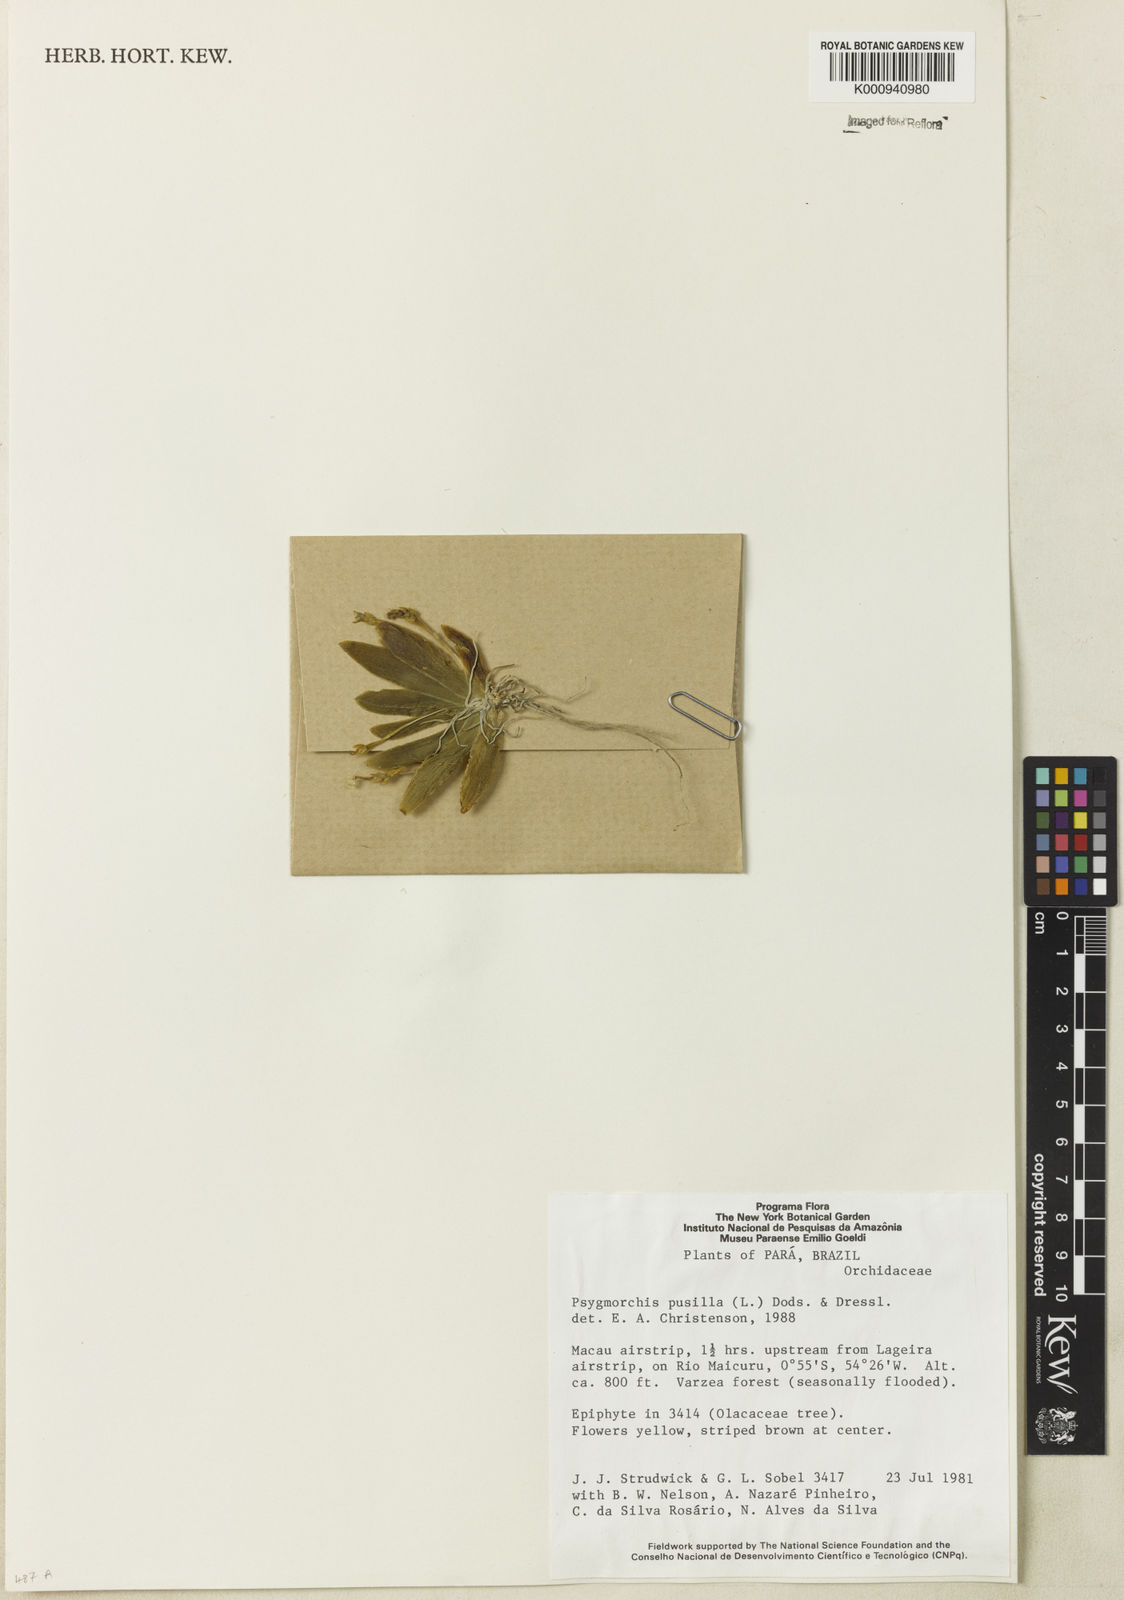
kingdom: Plantae
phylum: Tracheophyta
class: Liliopsida
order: Asparagales
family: Orchidaceae
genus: Erycina
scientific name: Erycina pusilla
